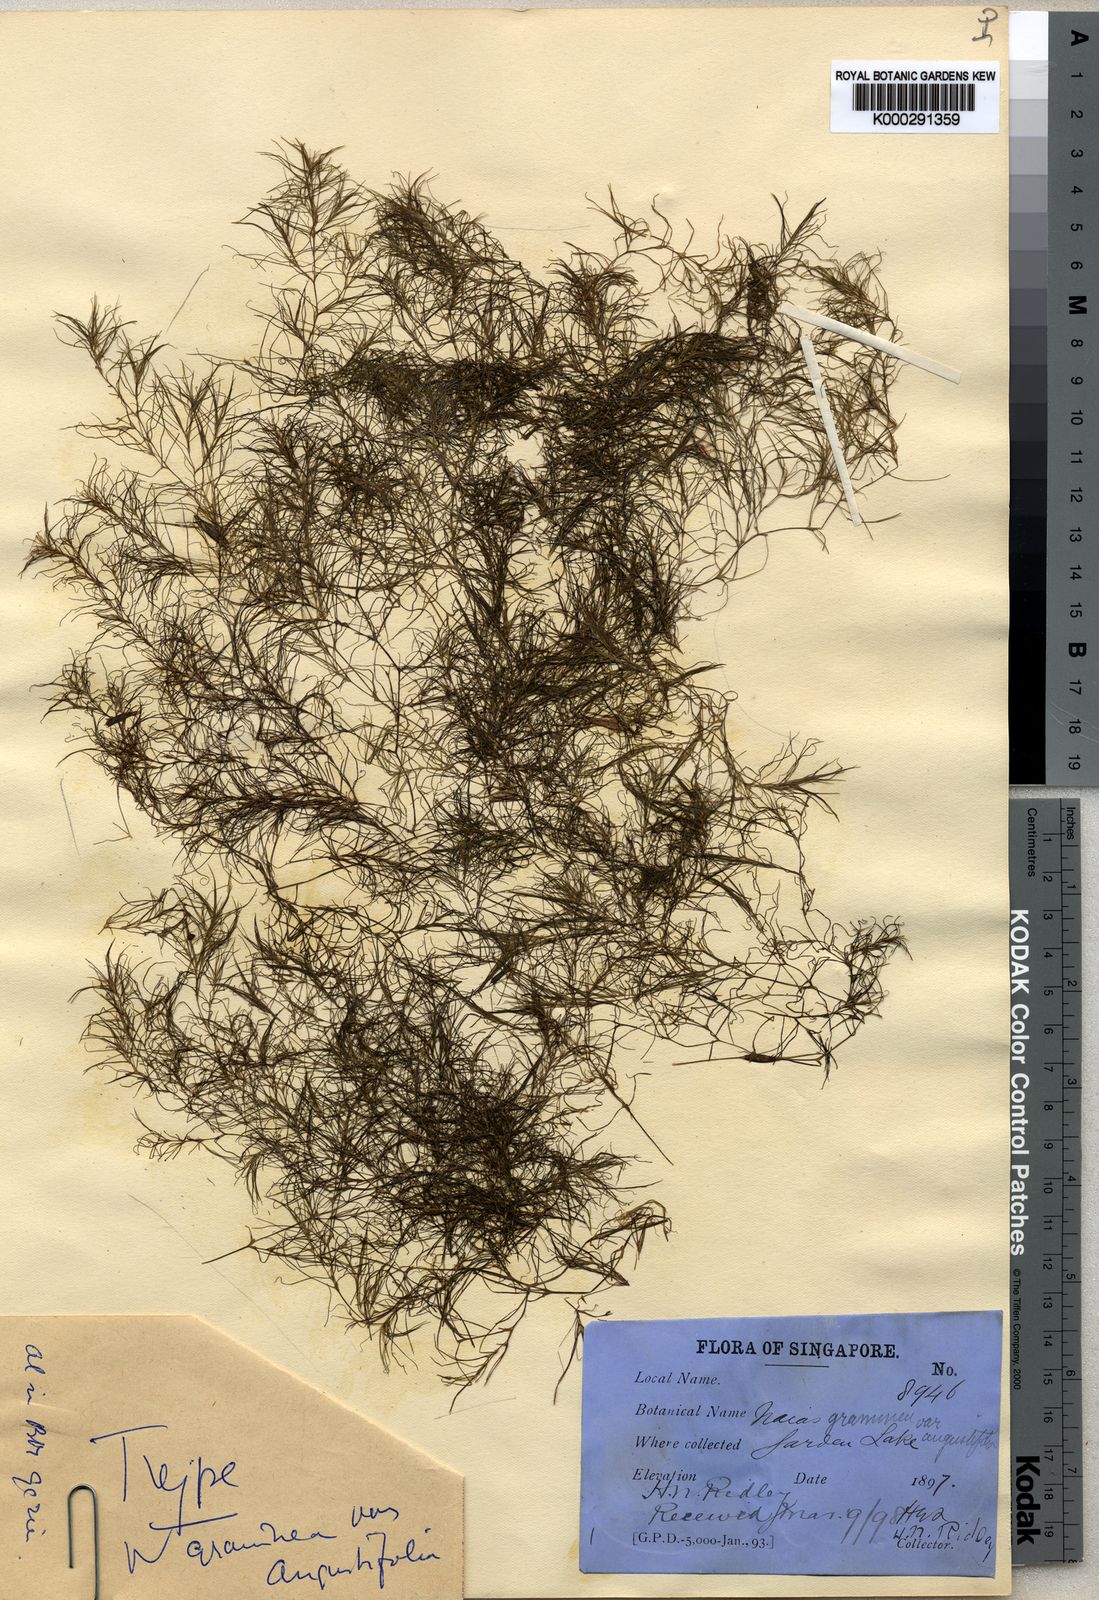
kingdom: Plantae
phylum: Tracheophyta
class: Liliopsida
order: Alismatales
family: Hydrocharitaceae
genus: Najas
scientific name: Najas graminea
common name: Ricefield waternymph
